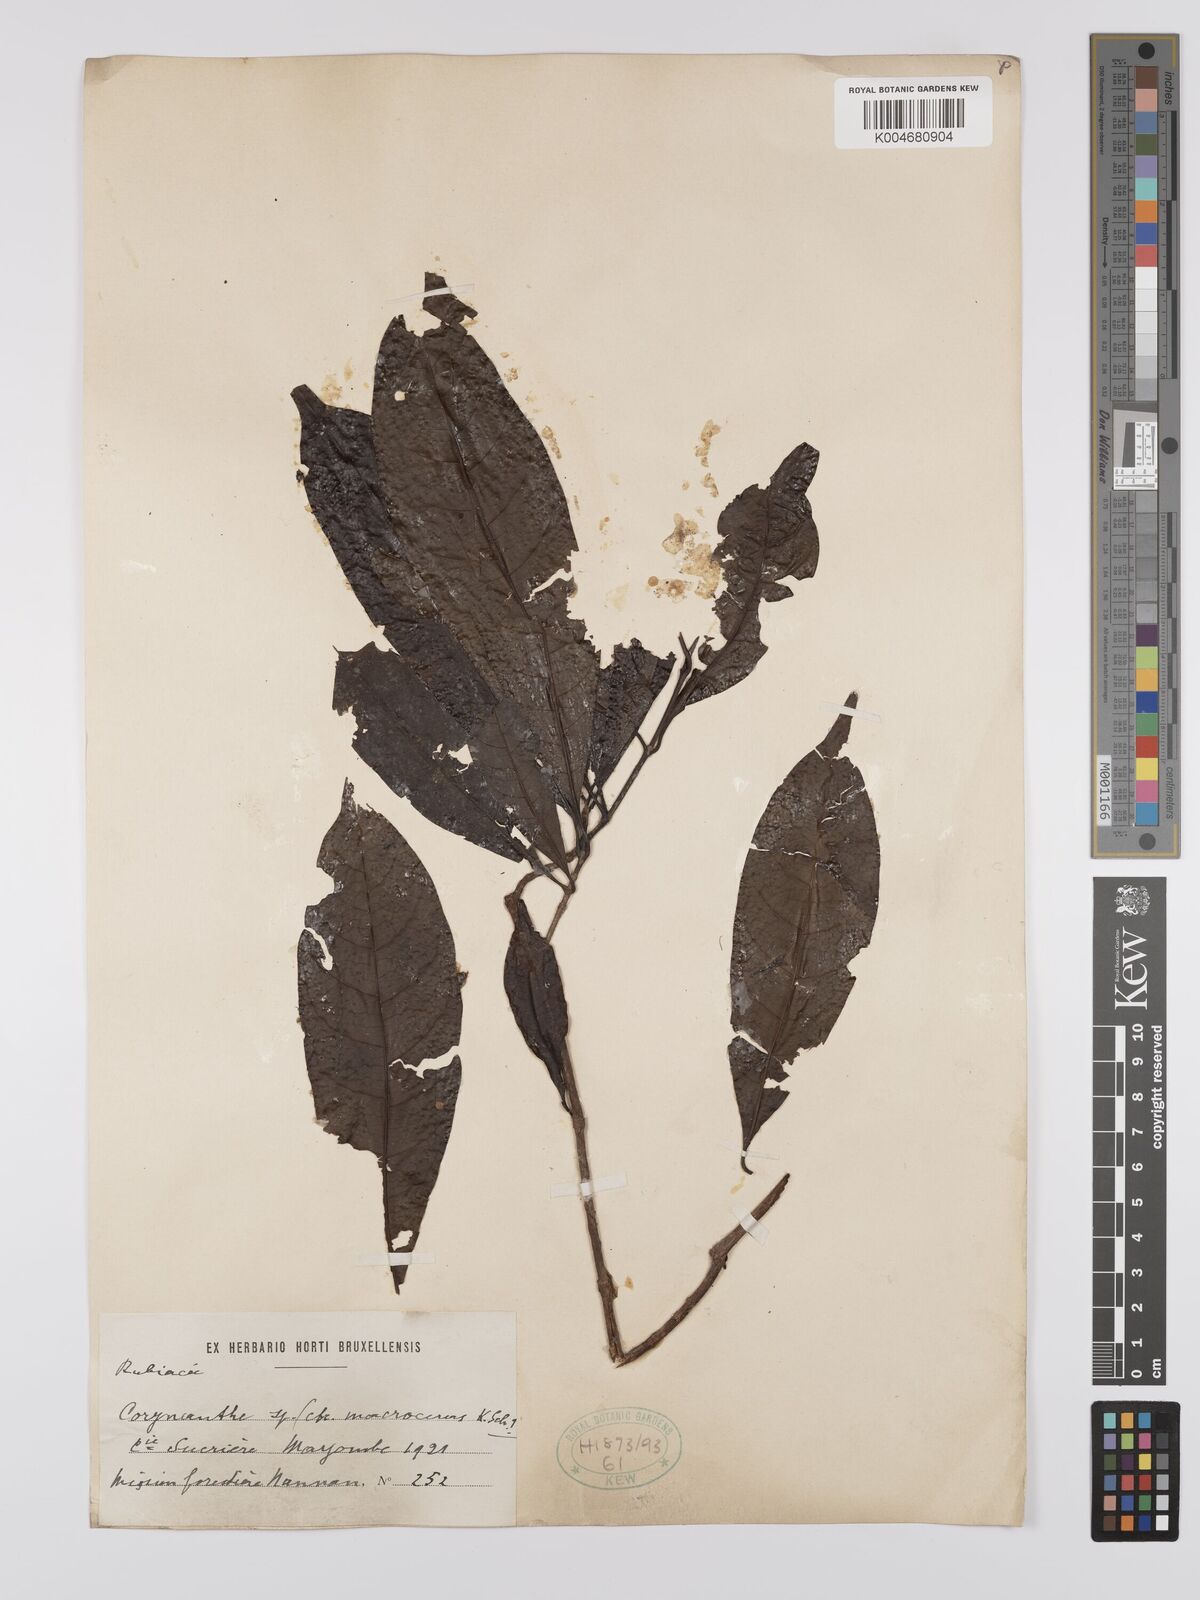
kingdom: Plantae
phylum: Tracheophyta
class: Magnoliopsida
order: Gentianales
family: Rubiaceae
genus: Corynanthe
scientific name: Corynanthe macroceras
